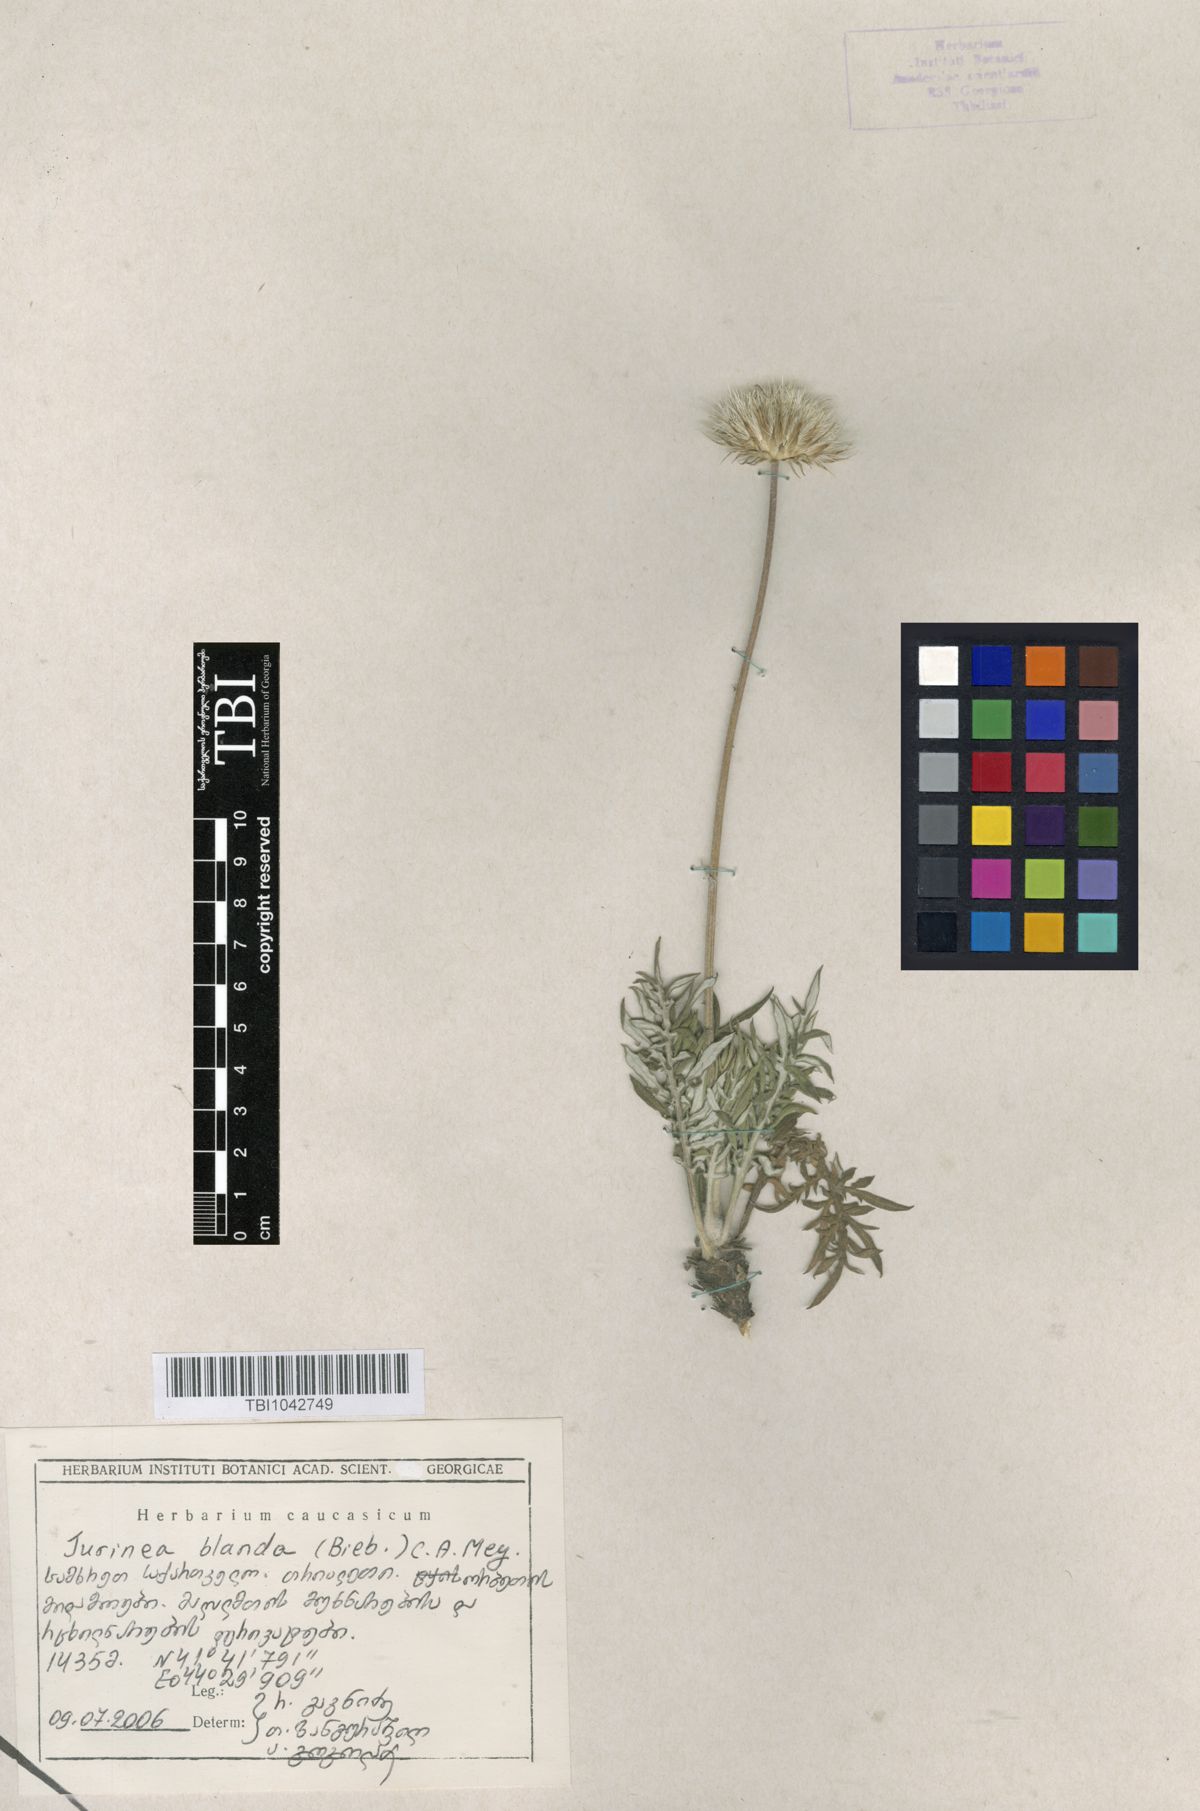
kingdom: Plantae
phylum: Tracheophyta
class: Magnoliopsida
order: Asterales
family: Asteraceae
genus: Jurinea
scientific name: Jurinea blanda
